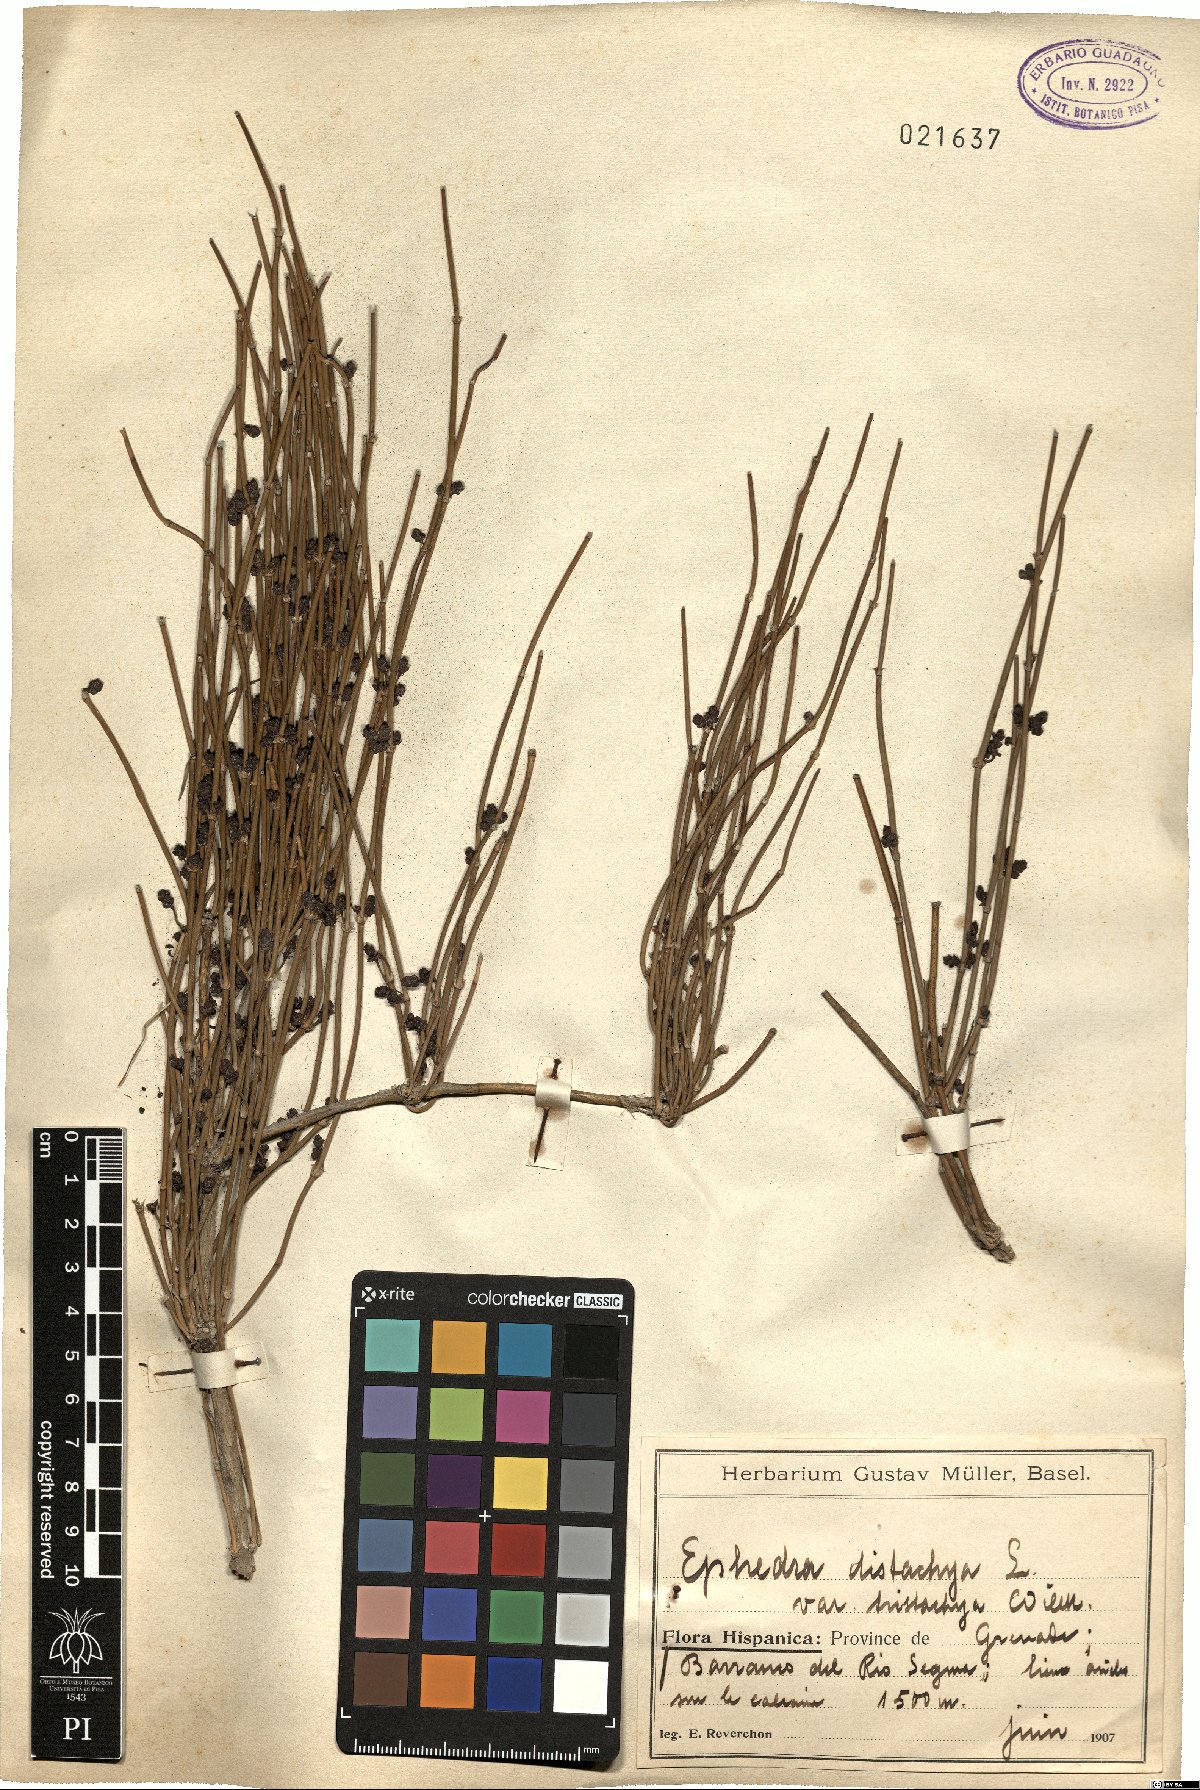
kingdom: Plantae
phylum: Tracheophyta
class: Gnetopsida
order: Ephedrales
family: Ephedraceae
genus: Ephedra
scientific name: Ephedra distachya
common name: Sea grape
